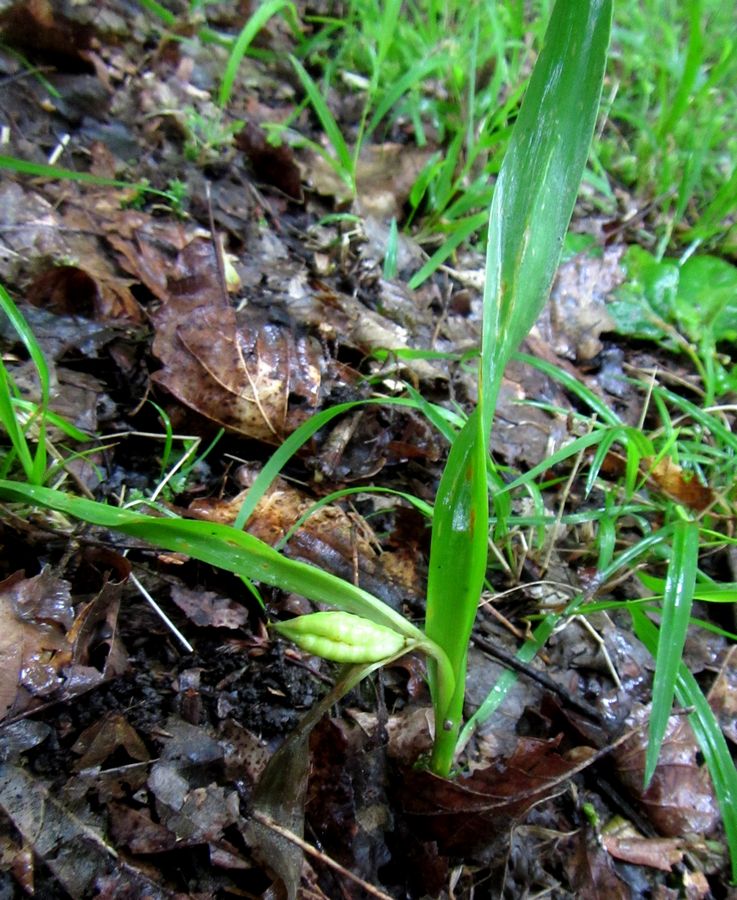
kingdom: Plantae
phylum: Tracheophyta
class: Liliopsida
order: Liliales
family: Colchicaceae
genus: Colchicum
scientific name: Colchicum speciosum
